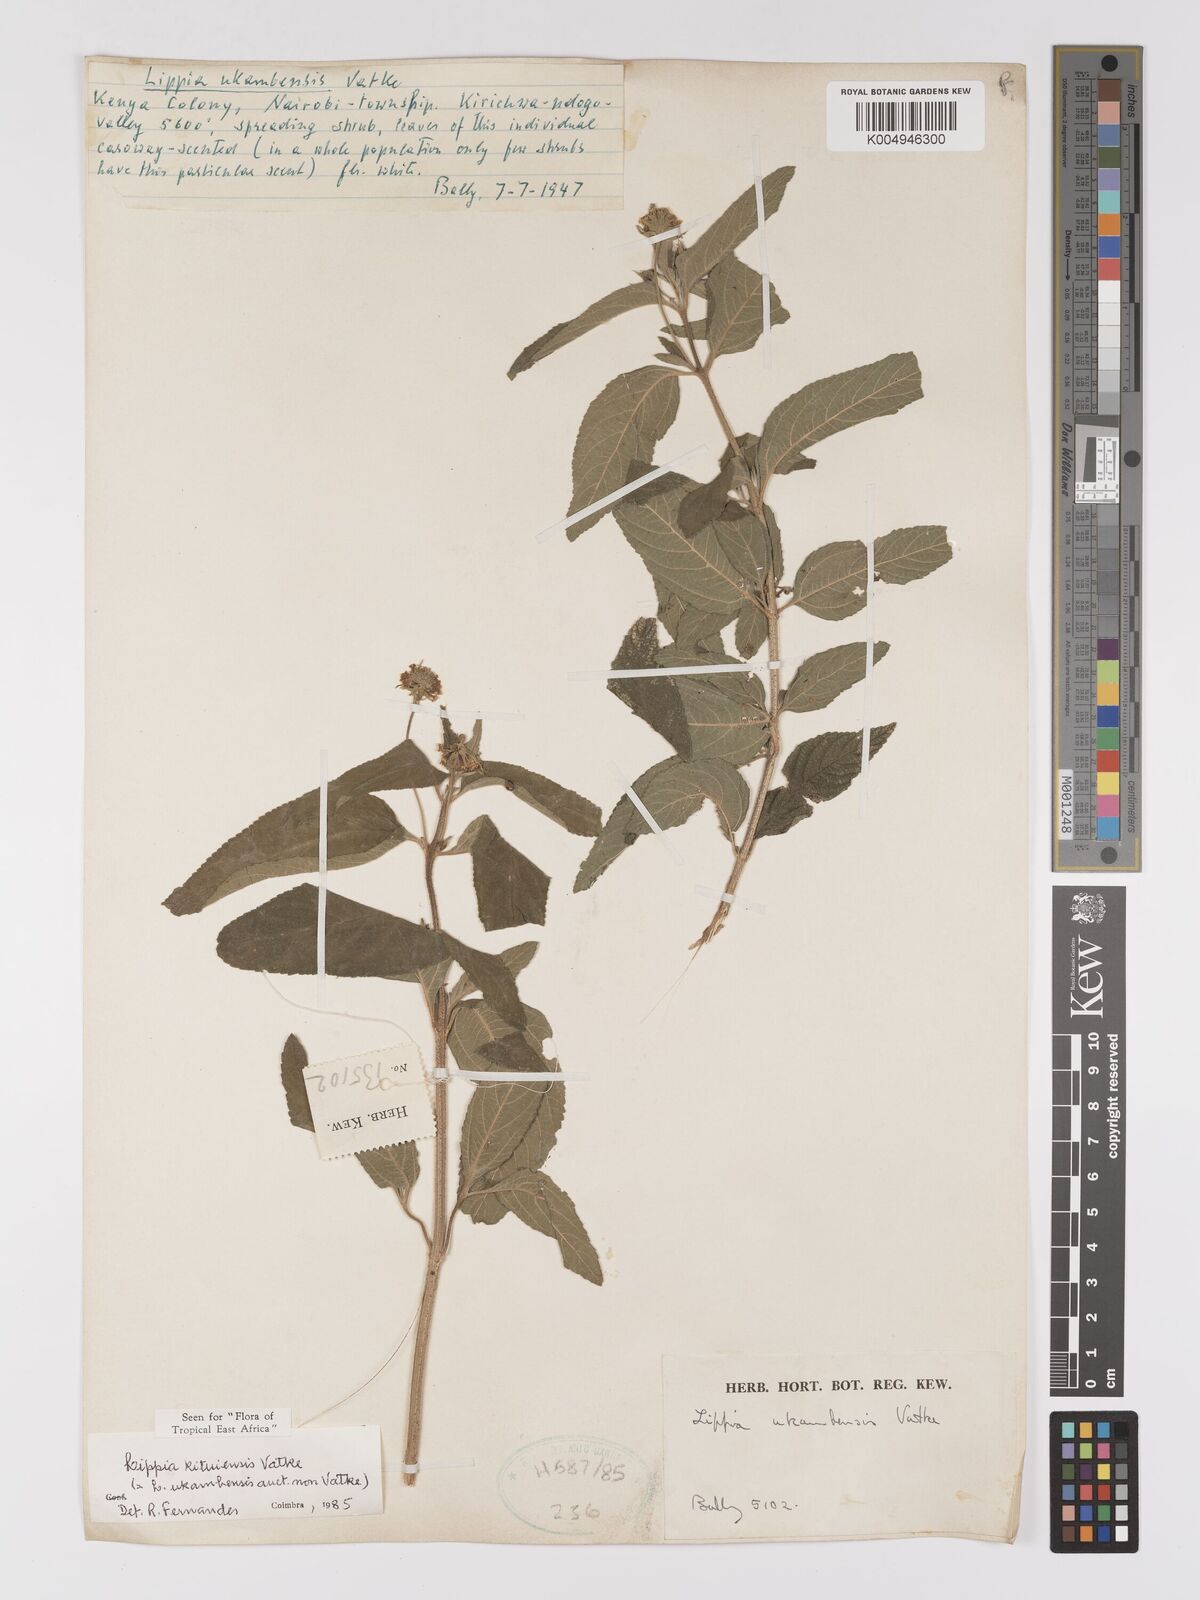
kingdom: Plantae
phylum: Tracheophyta
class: Magnoliopsida
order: Lamiales
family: Verbenaceae
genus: Lippia
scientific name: Lippia kituiensis
